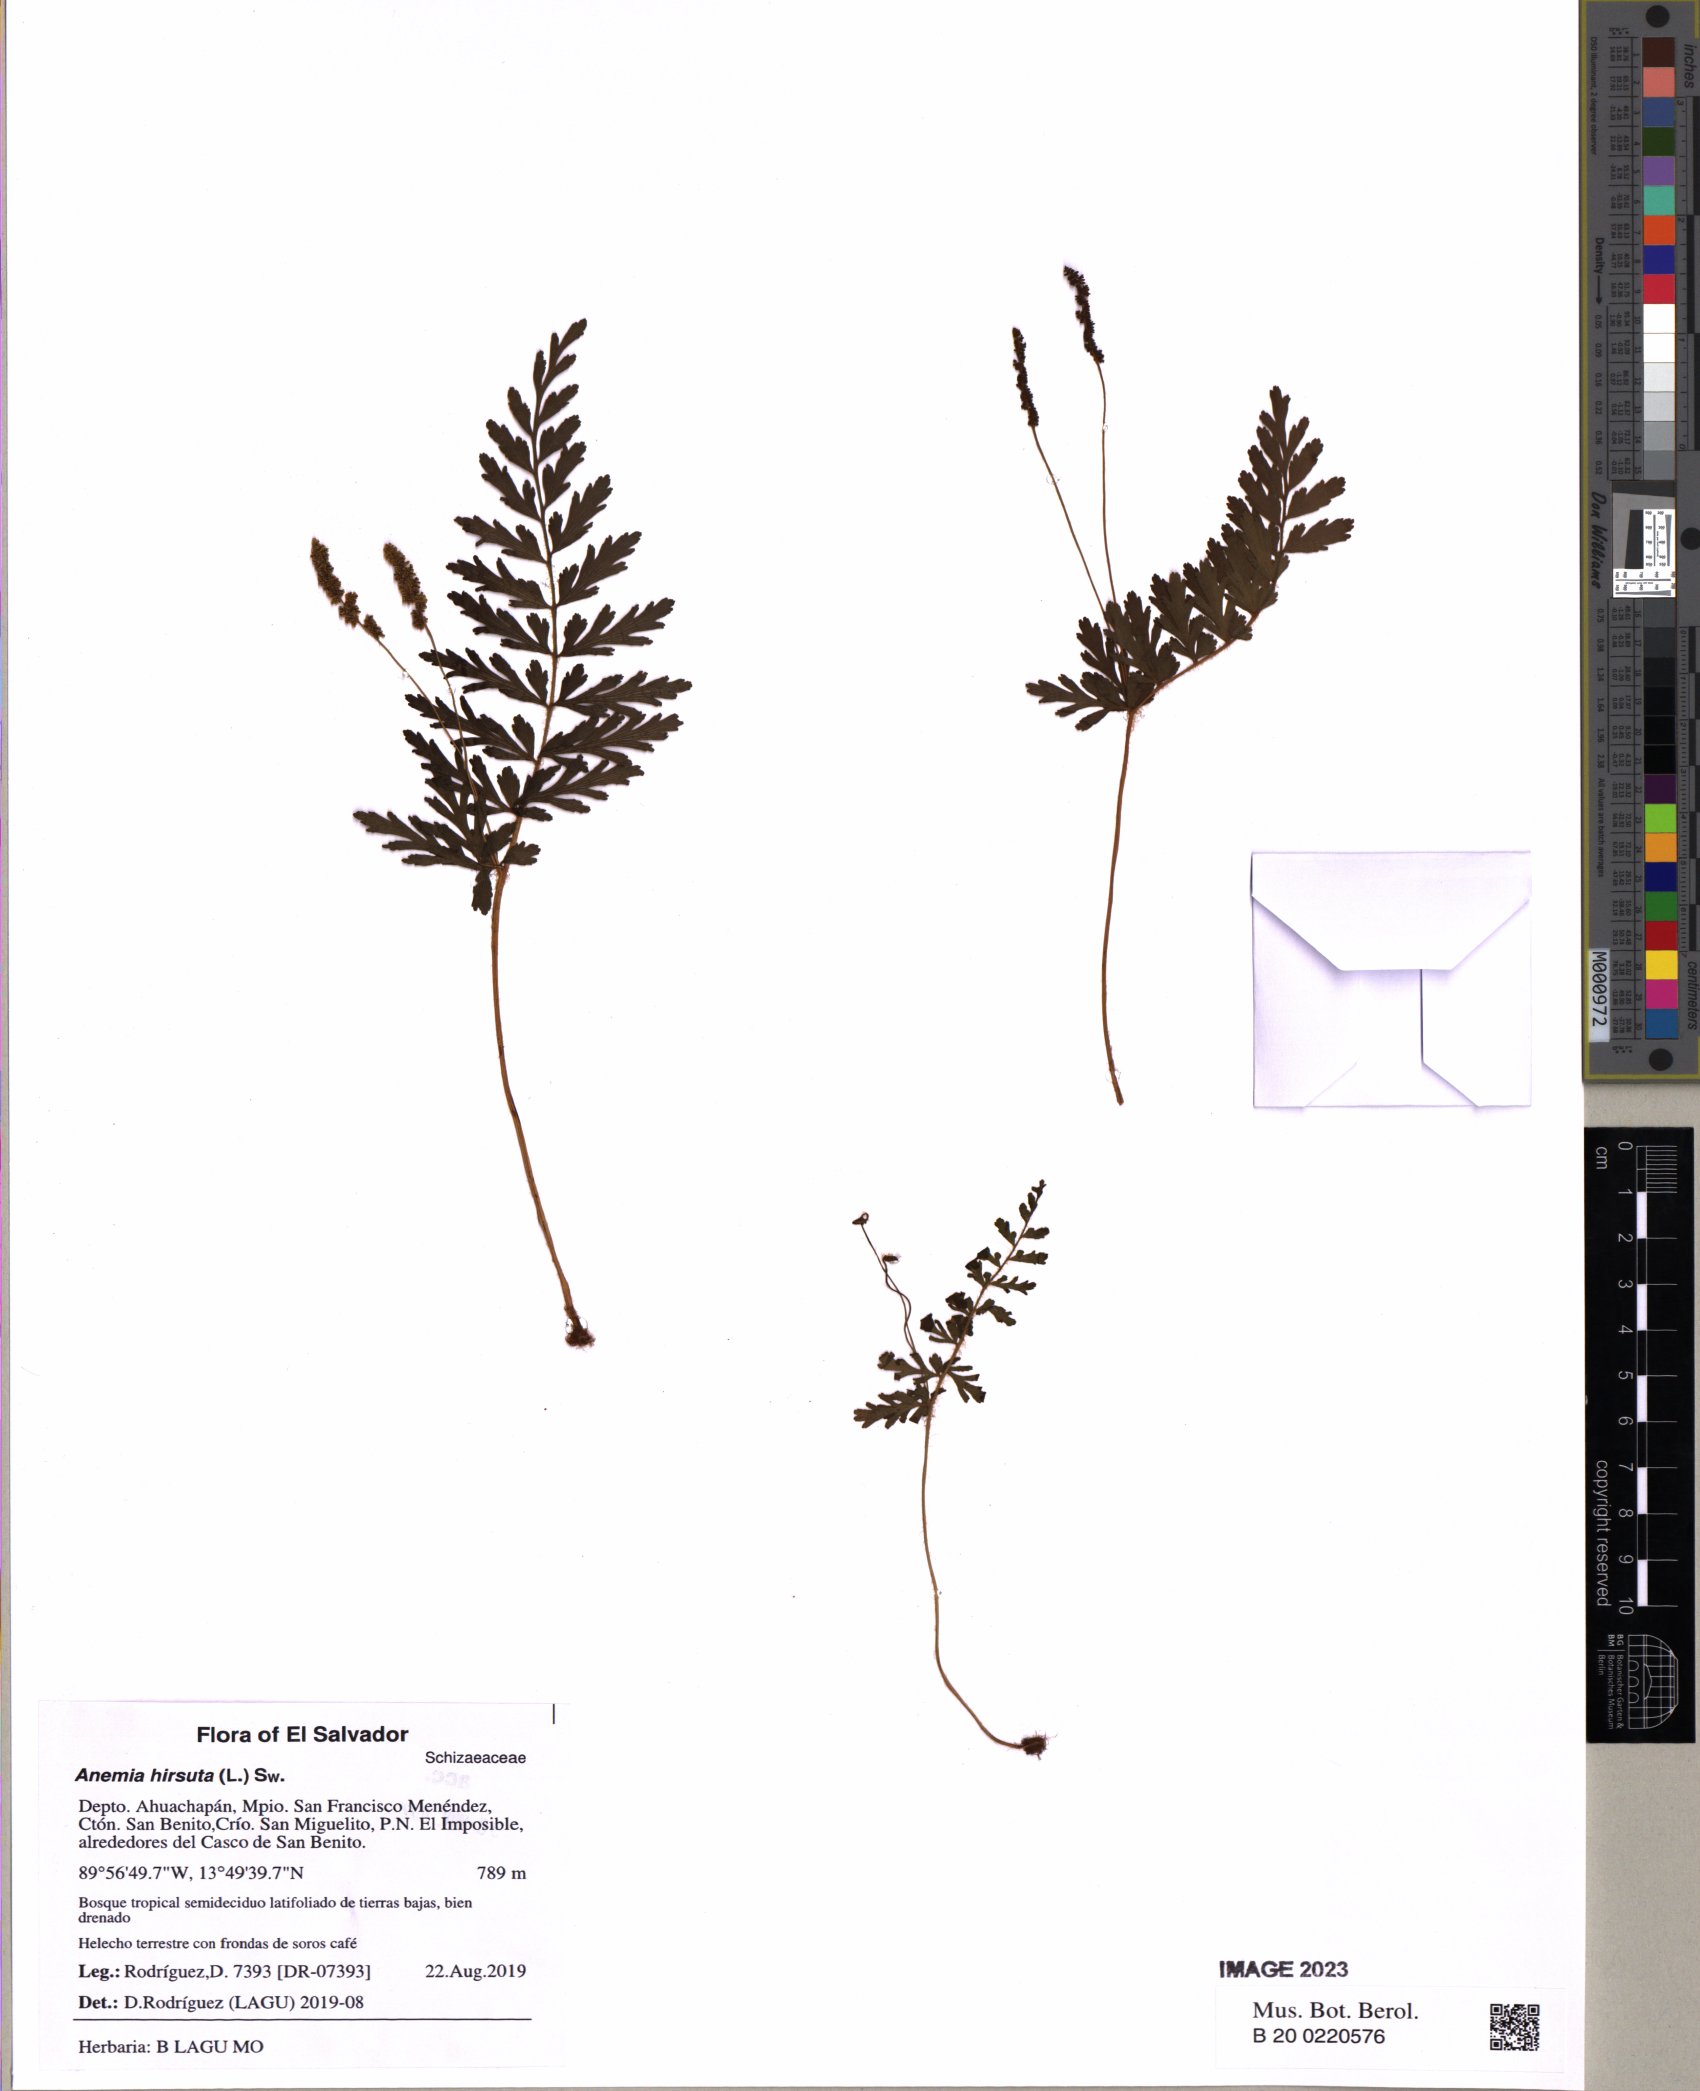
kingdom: Plantae
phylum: Tracheophyta
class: Polypodiopsida
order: Schizaeales
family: Anemiaceae
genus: Anemia
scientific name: Anemia hirsuta
